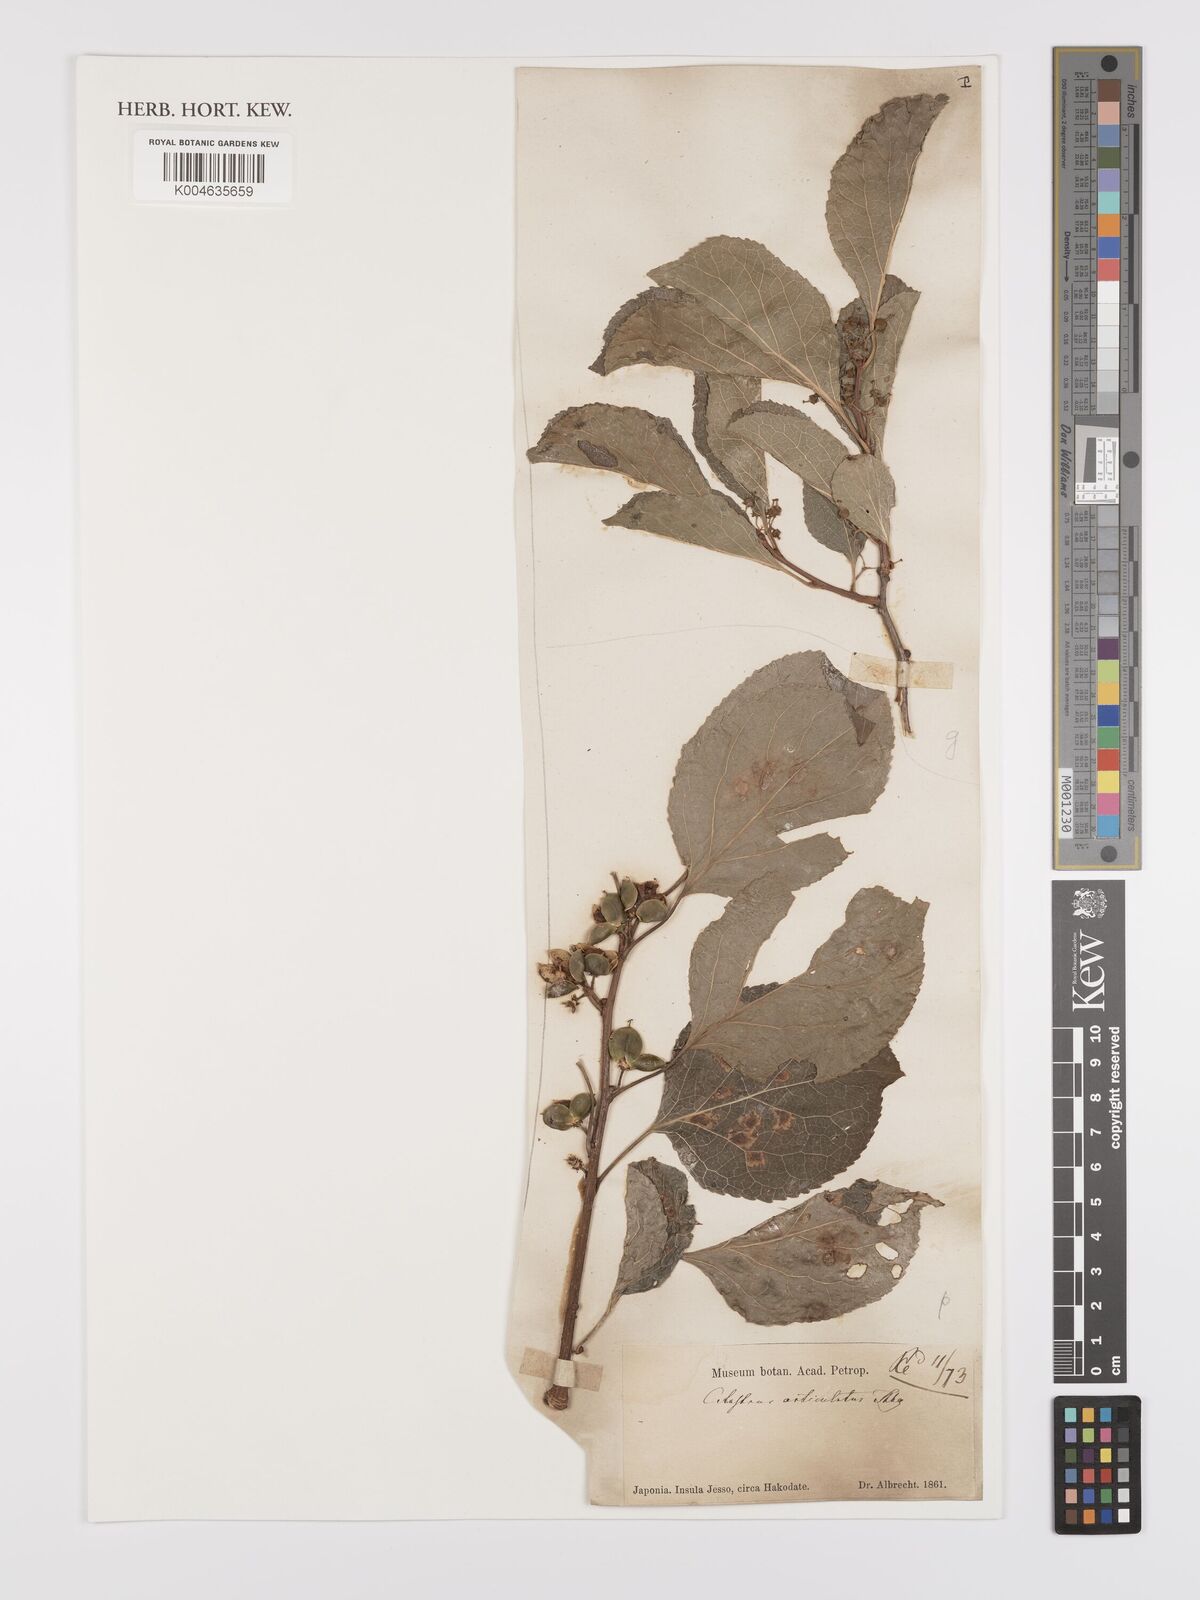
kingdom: Plantae
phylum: Tracheophyta
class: Magnoliopsida
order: Celastrales
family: Celastraceae
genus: Celastrus
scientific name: Celastrus orbiculatus
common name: Oriental bittersweet
